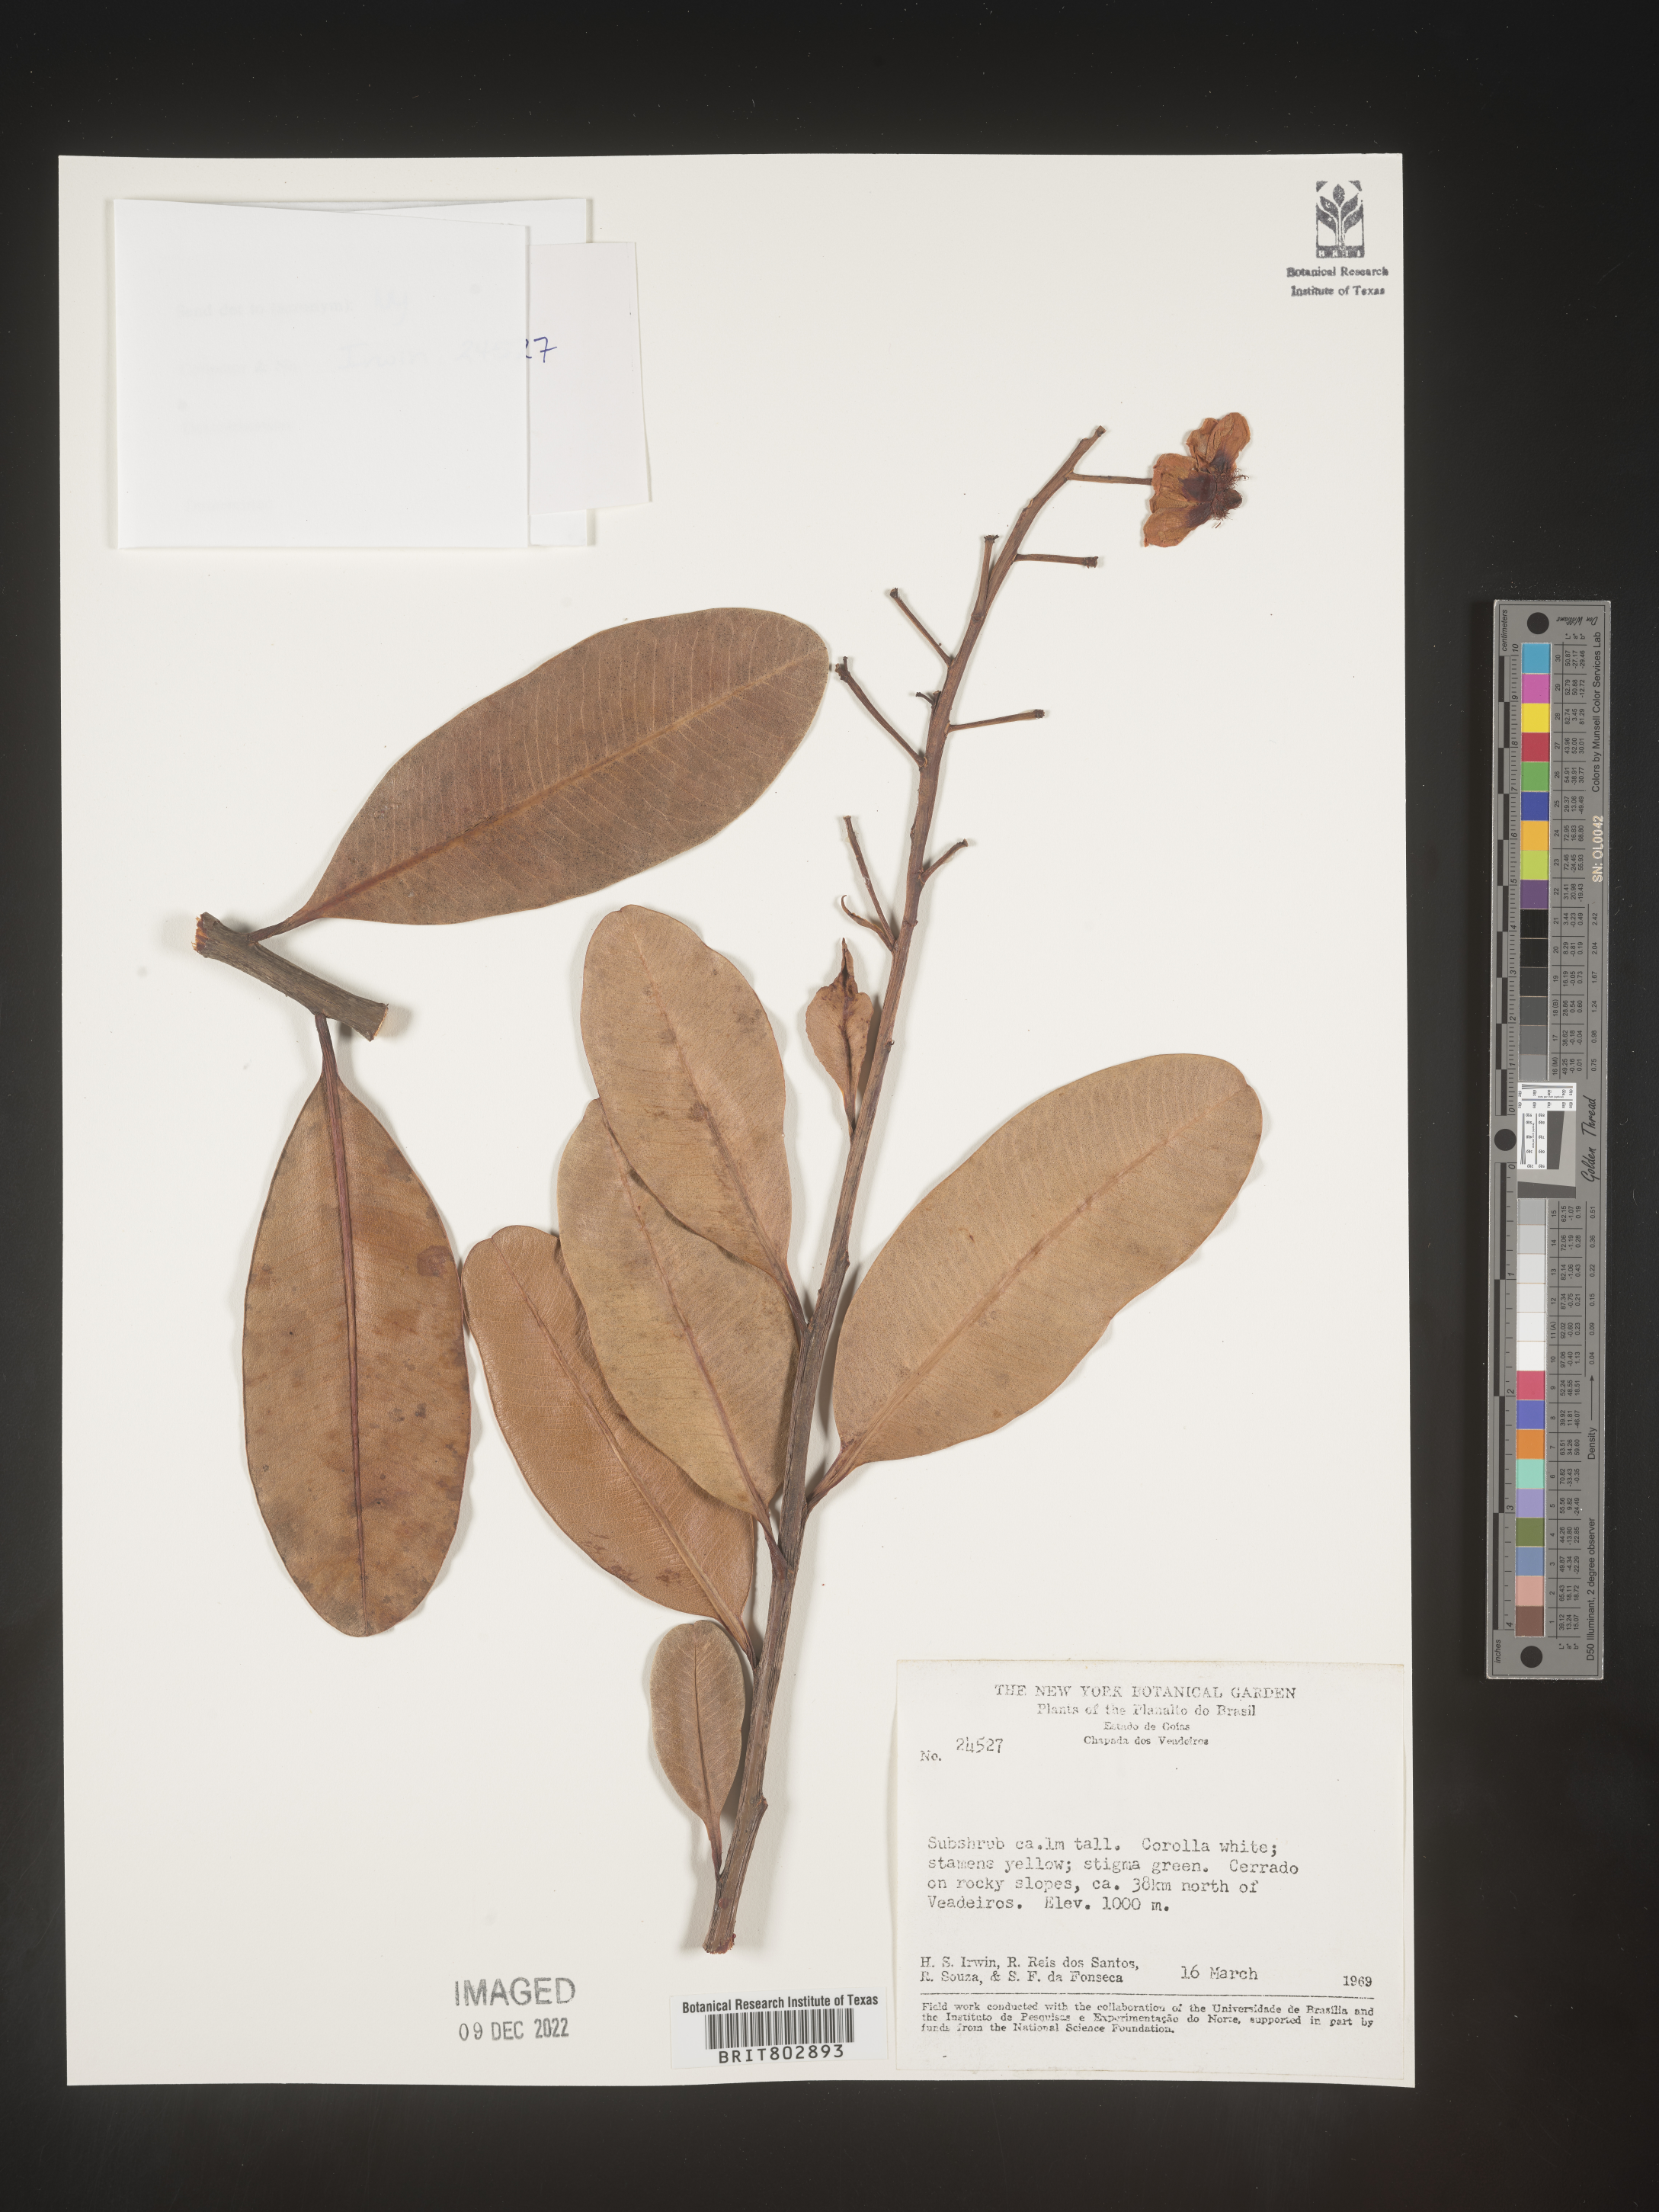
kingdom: Plantae
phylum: Tracheophyta
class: Magnoliopsida
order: Malpighiales
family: Calophyllaceae
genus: Kielmeyera
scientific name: Kielmeyera
